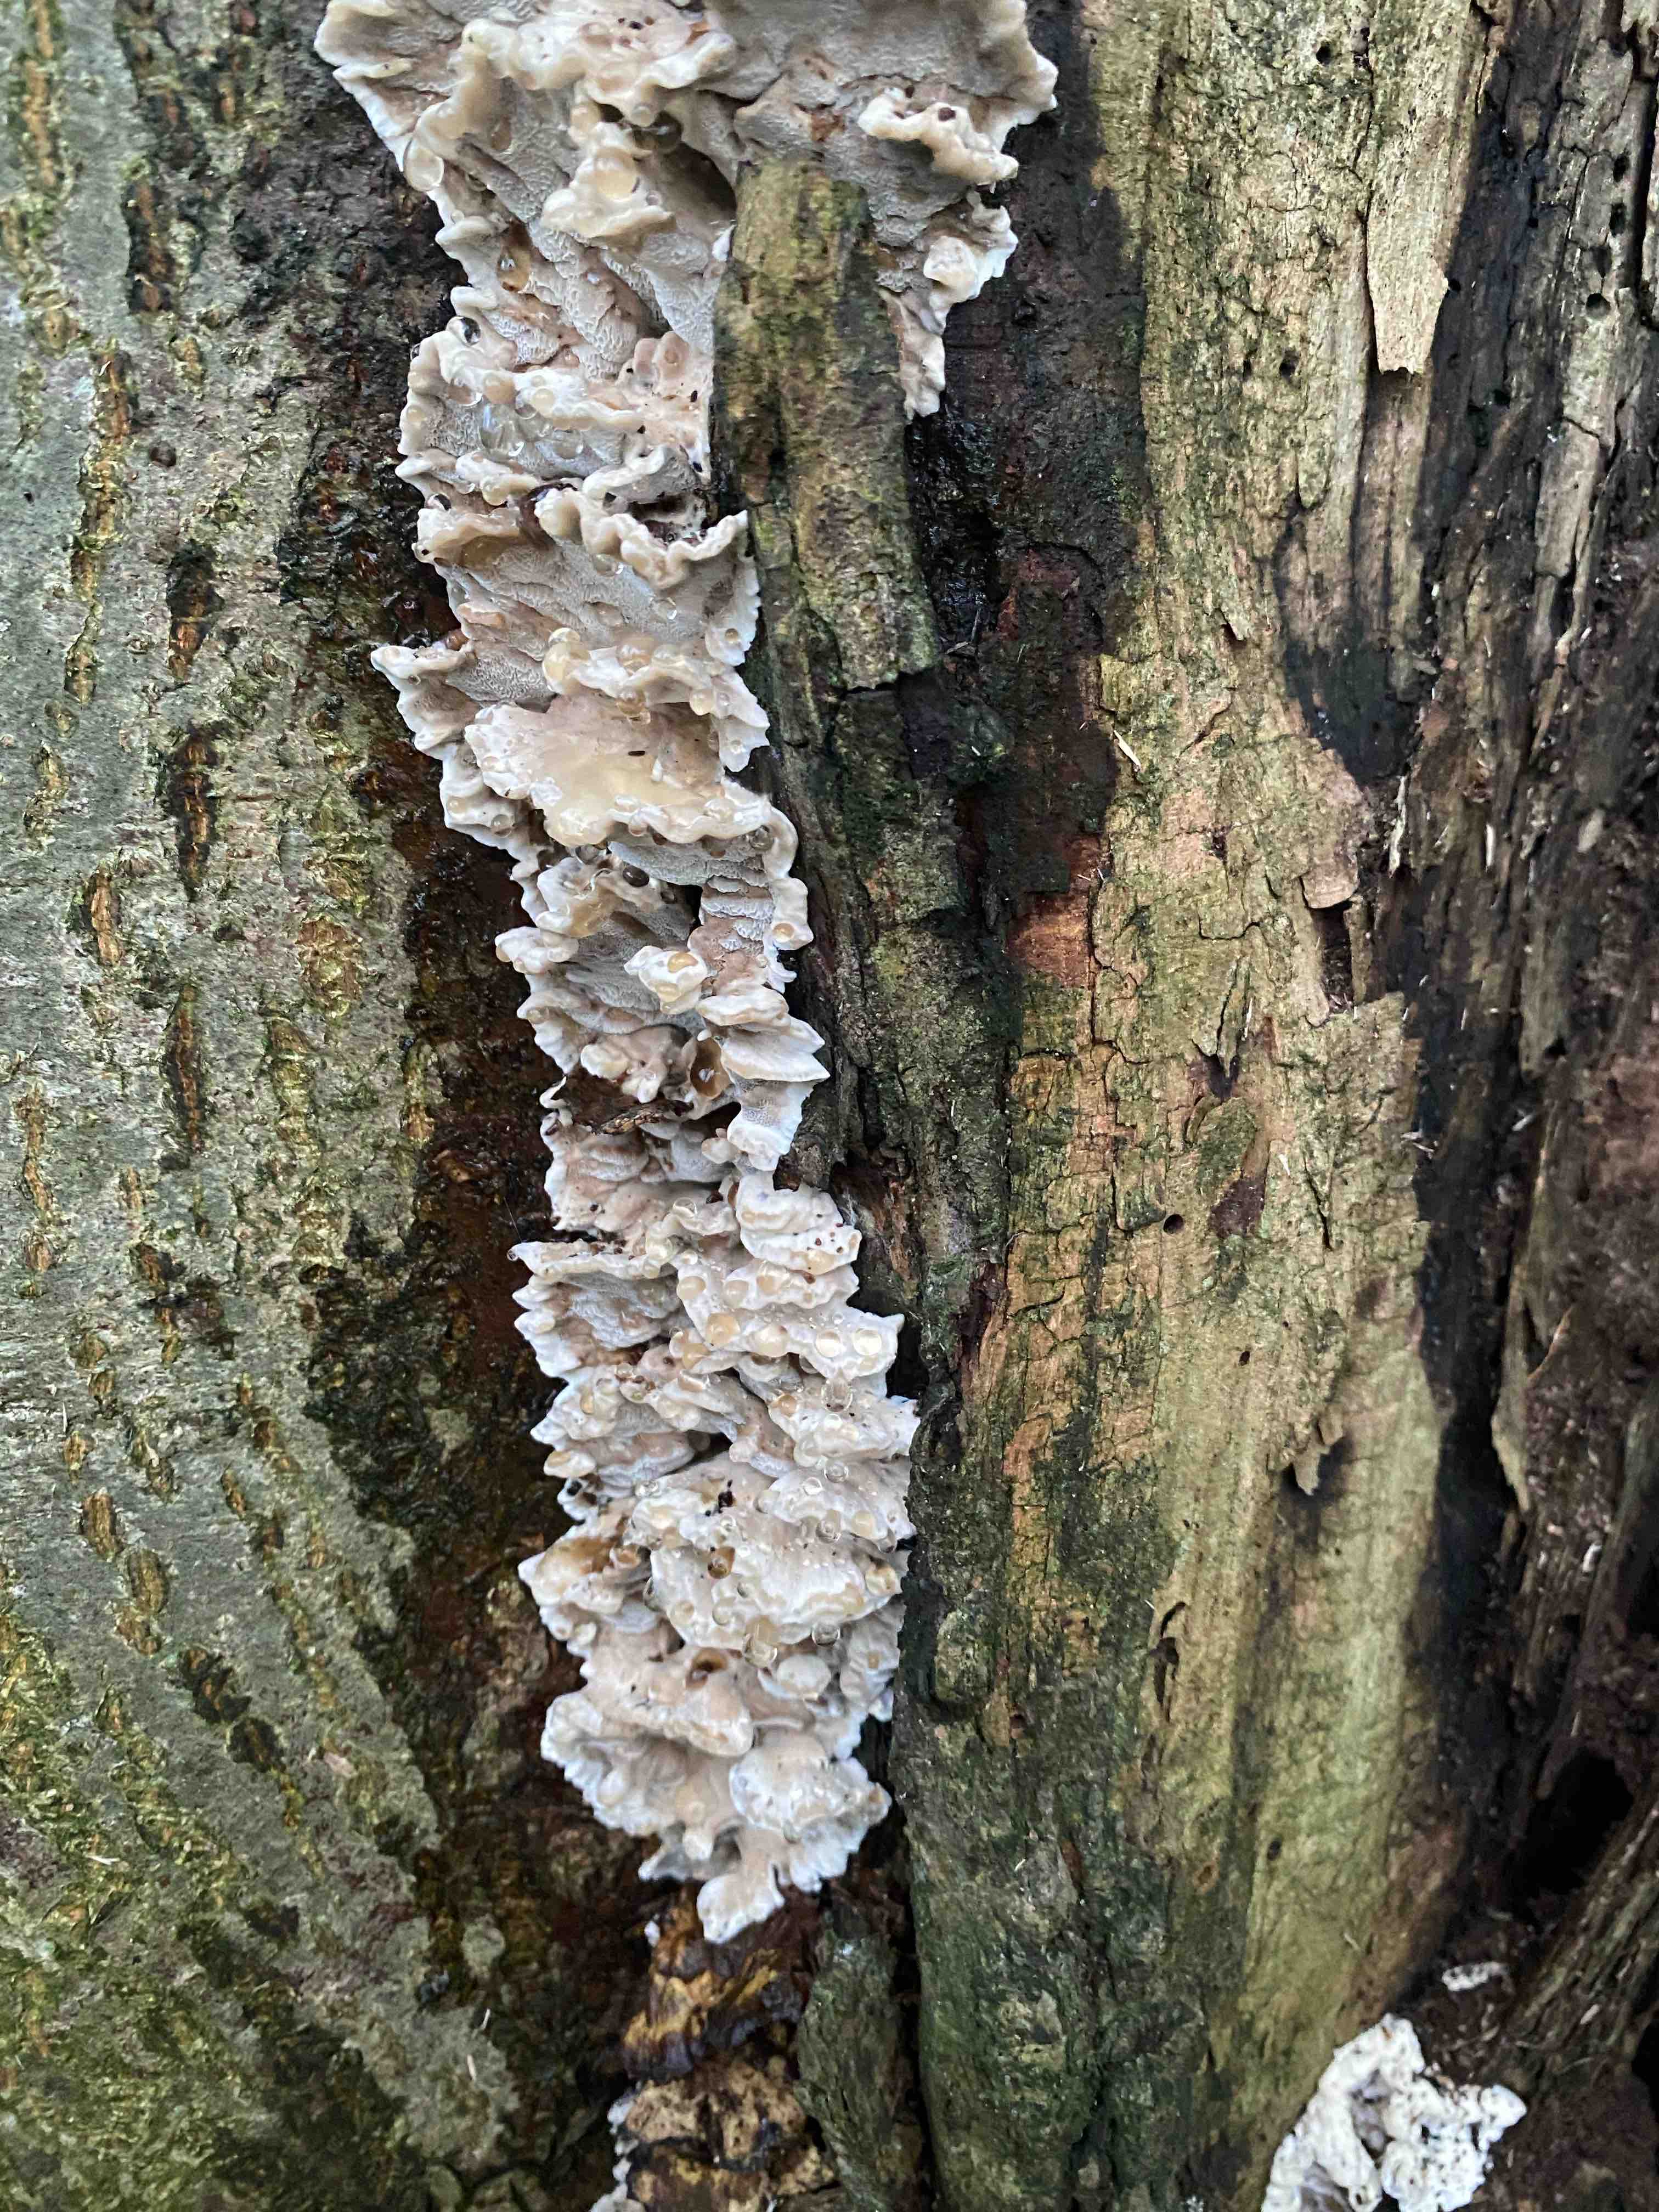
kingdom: Fungi
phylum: Basidiomycota
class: Agaricomycetes
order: Polyporales
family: Phanerochaetaceae
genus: Bjerkandera
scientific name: Bjerkandera fumosa
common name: grågul sodporesvamp
